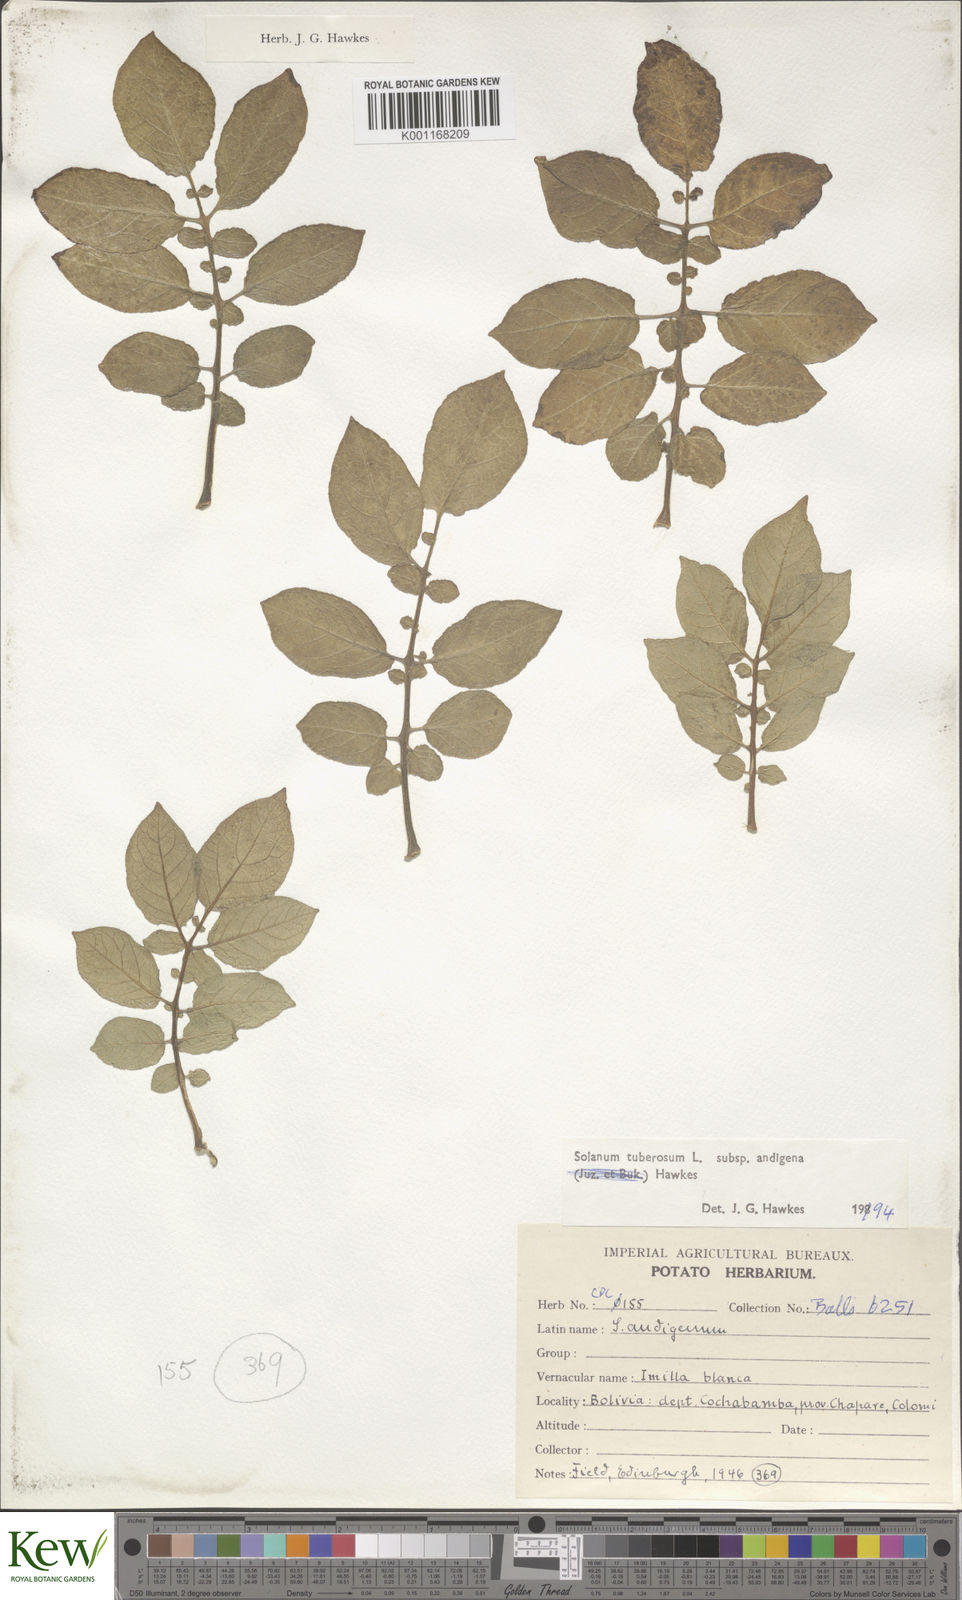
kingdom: Plantae
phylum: Tracheophyta
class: Magnoliopsida
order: Solanales
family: Solanaceae
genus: Solanum
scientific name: Solanum tuberosum
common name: Potato
